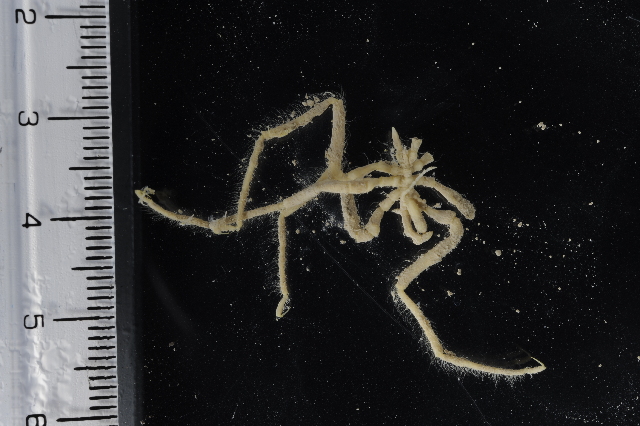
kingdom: Animalia
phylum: Arthropoda
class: Pycnogonida
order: Pantopoda
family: Pallenopsidae
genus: Pallenopsis
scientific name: Pallenopsis
